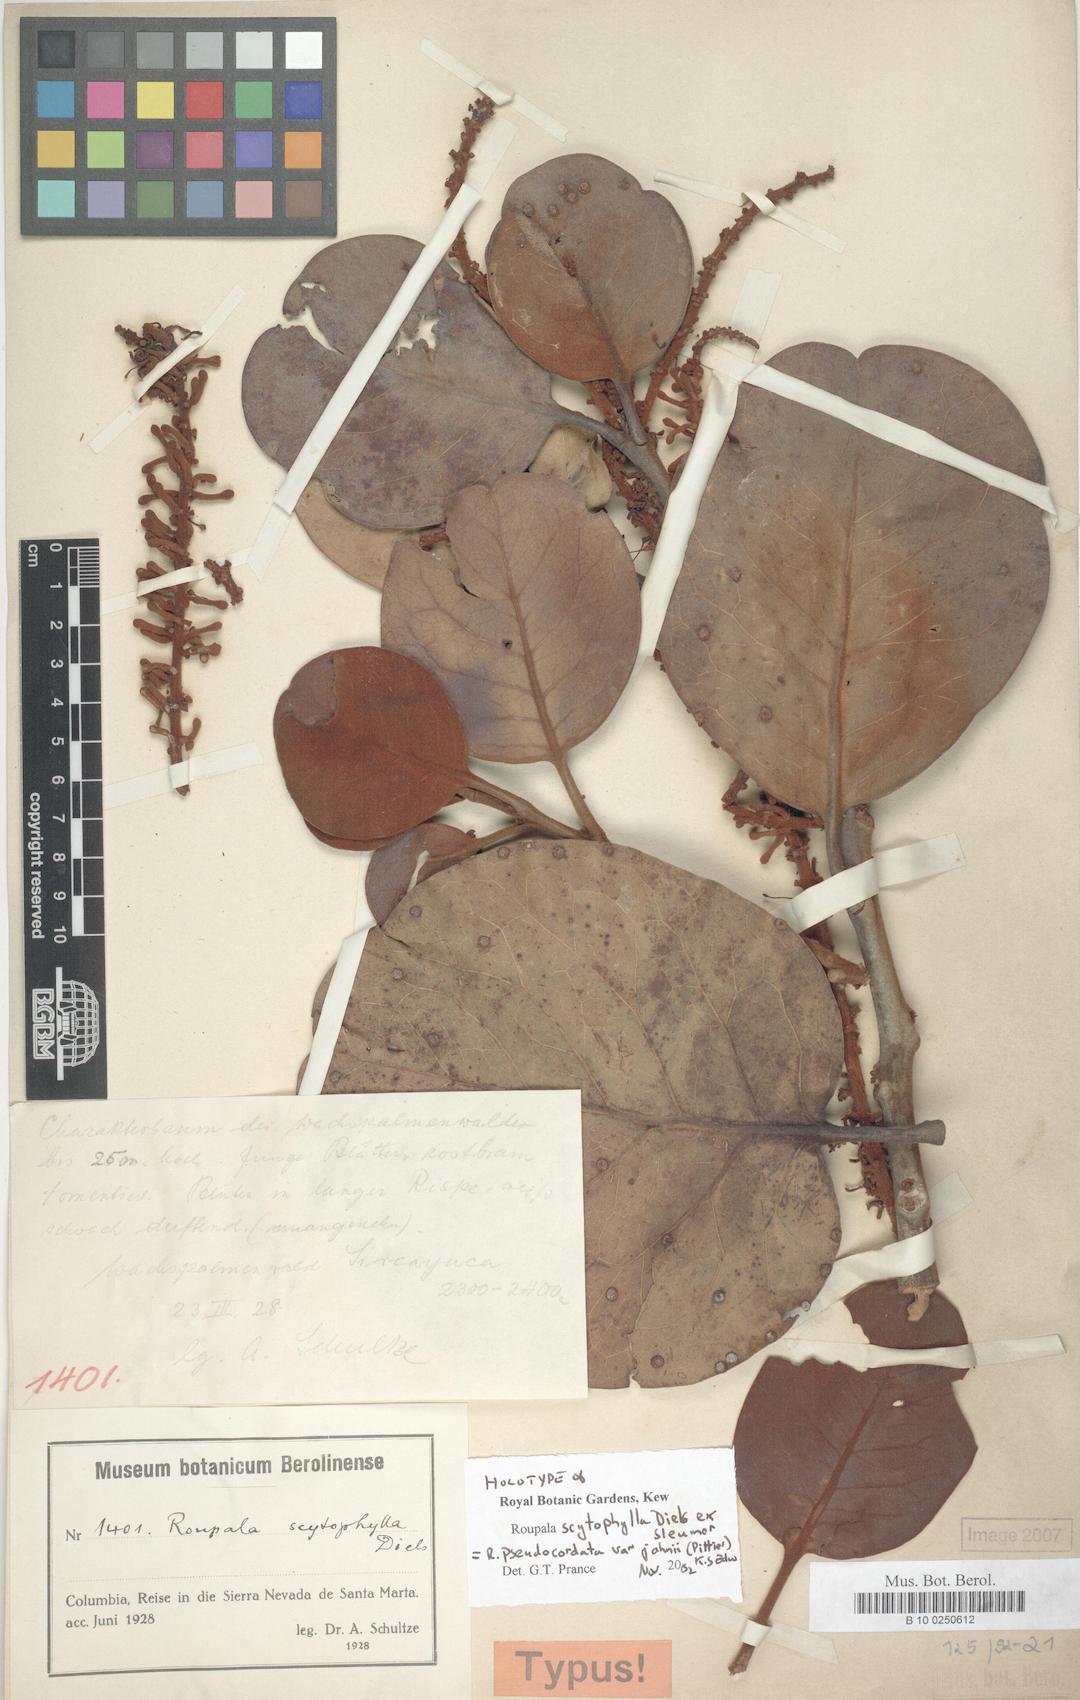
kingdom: Plantae
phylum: Tracheophyta
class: Magnoliopsida
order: Proteales
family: Proteaceae
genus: Roupala
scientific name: Roupala pseudocordata
